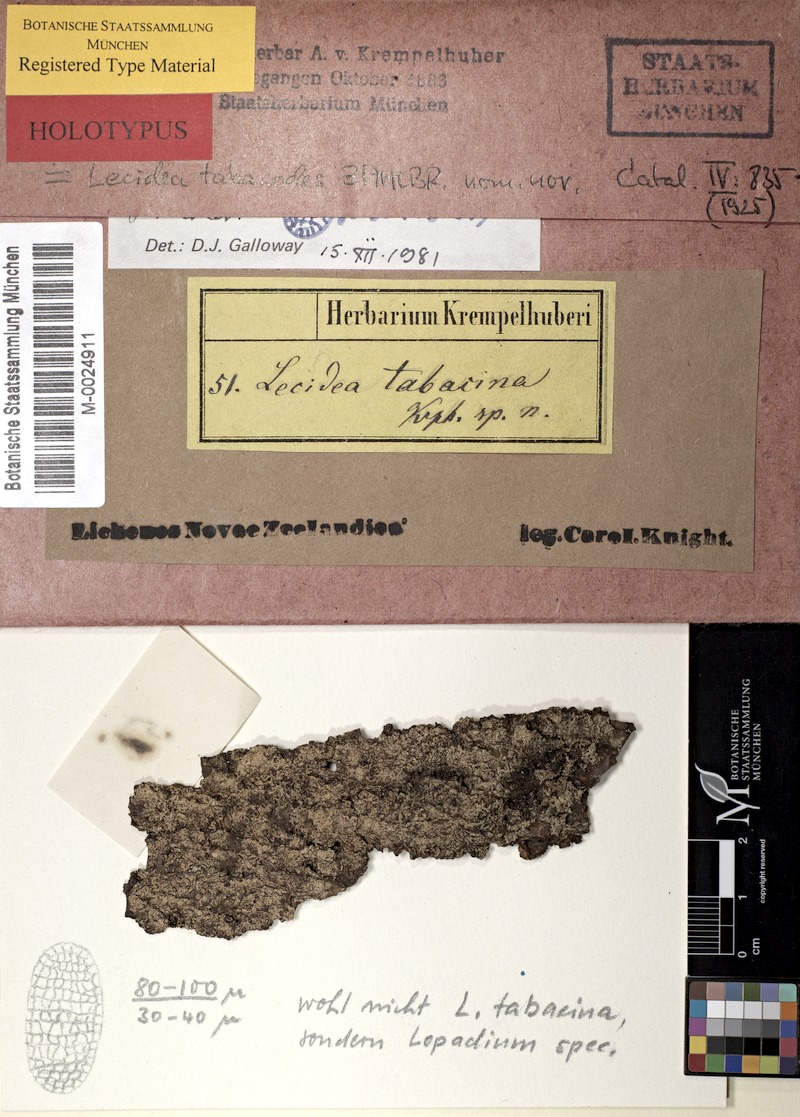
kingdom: Fungi
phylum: Ascomycota
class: Lecanoromycetes
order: Teloschistales
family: Brigantiaeaceae
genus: Brigantiaea
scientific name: Brigantiaea phaeomma
